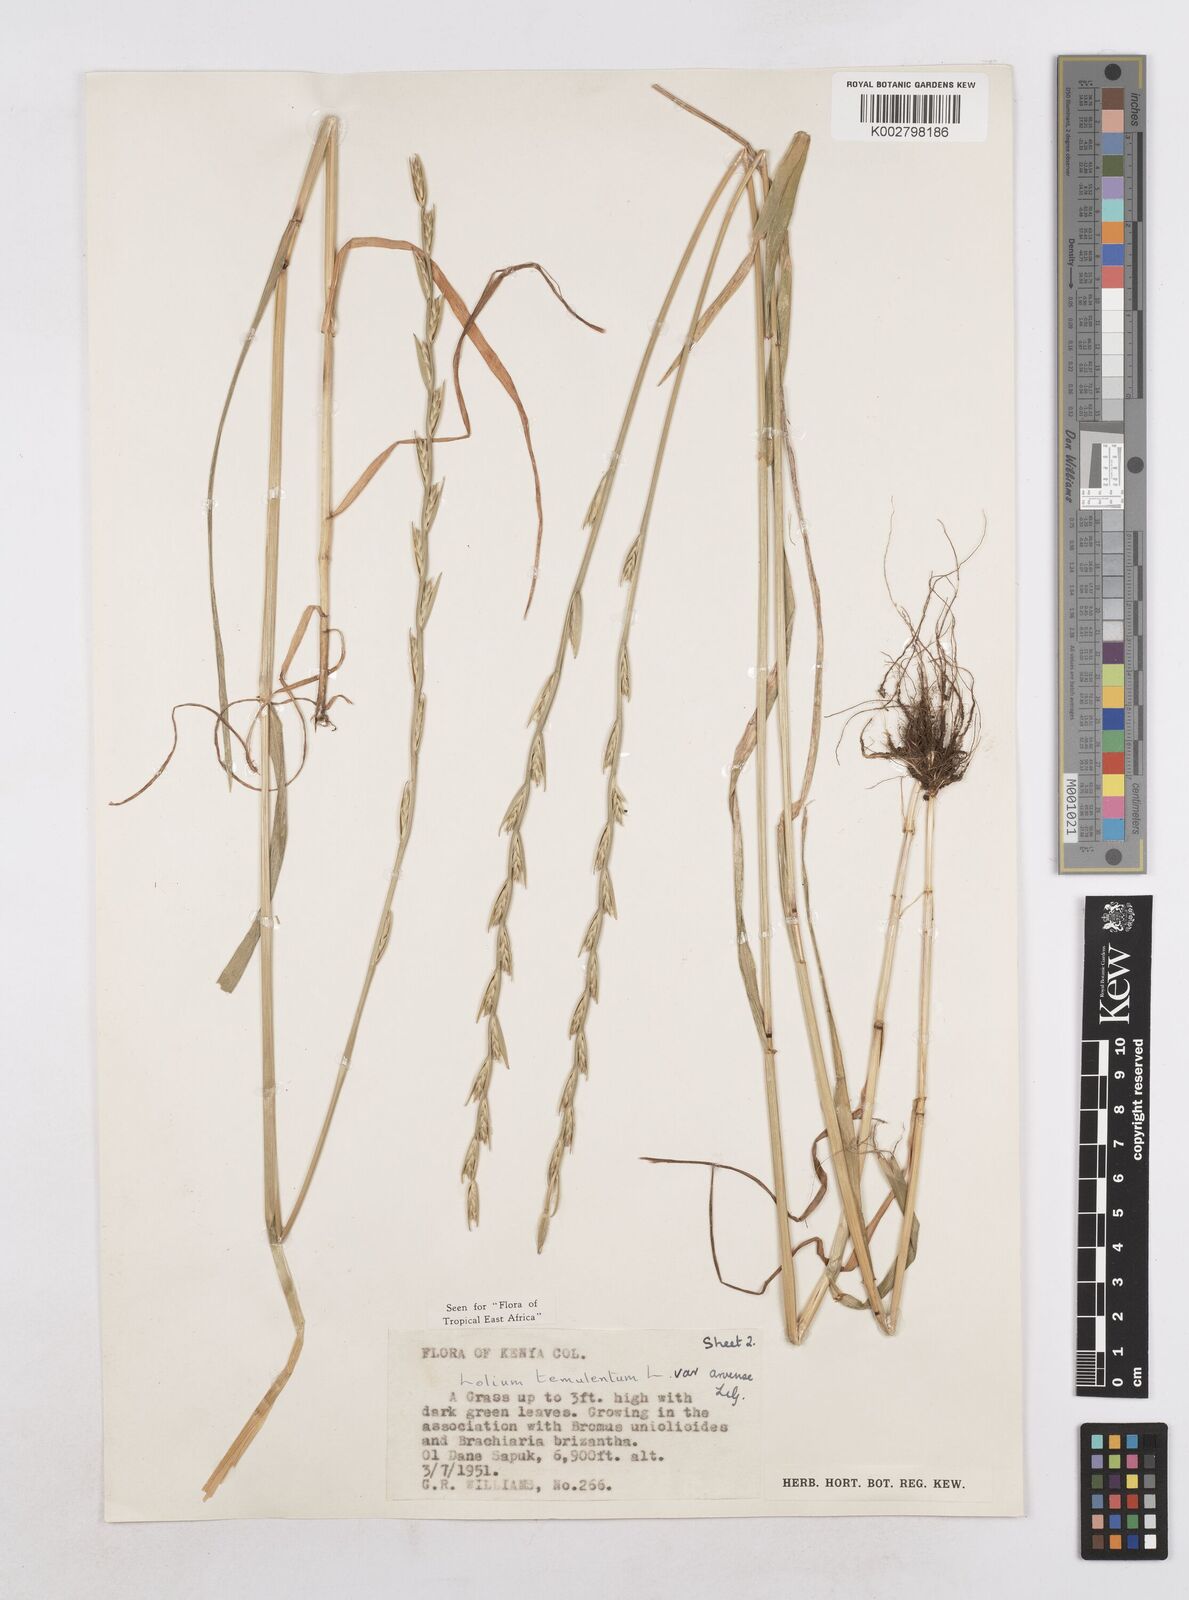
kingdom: Plantae
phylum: Tracheophyta
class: Liliopsida
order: Poales
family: Poaceae
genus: Lolium
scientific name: Lolium temulentum
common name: Darnel
